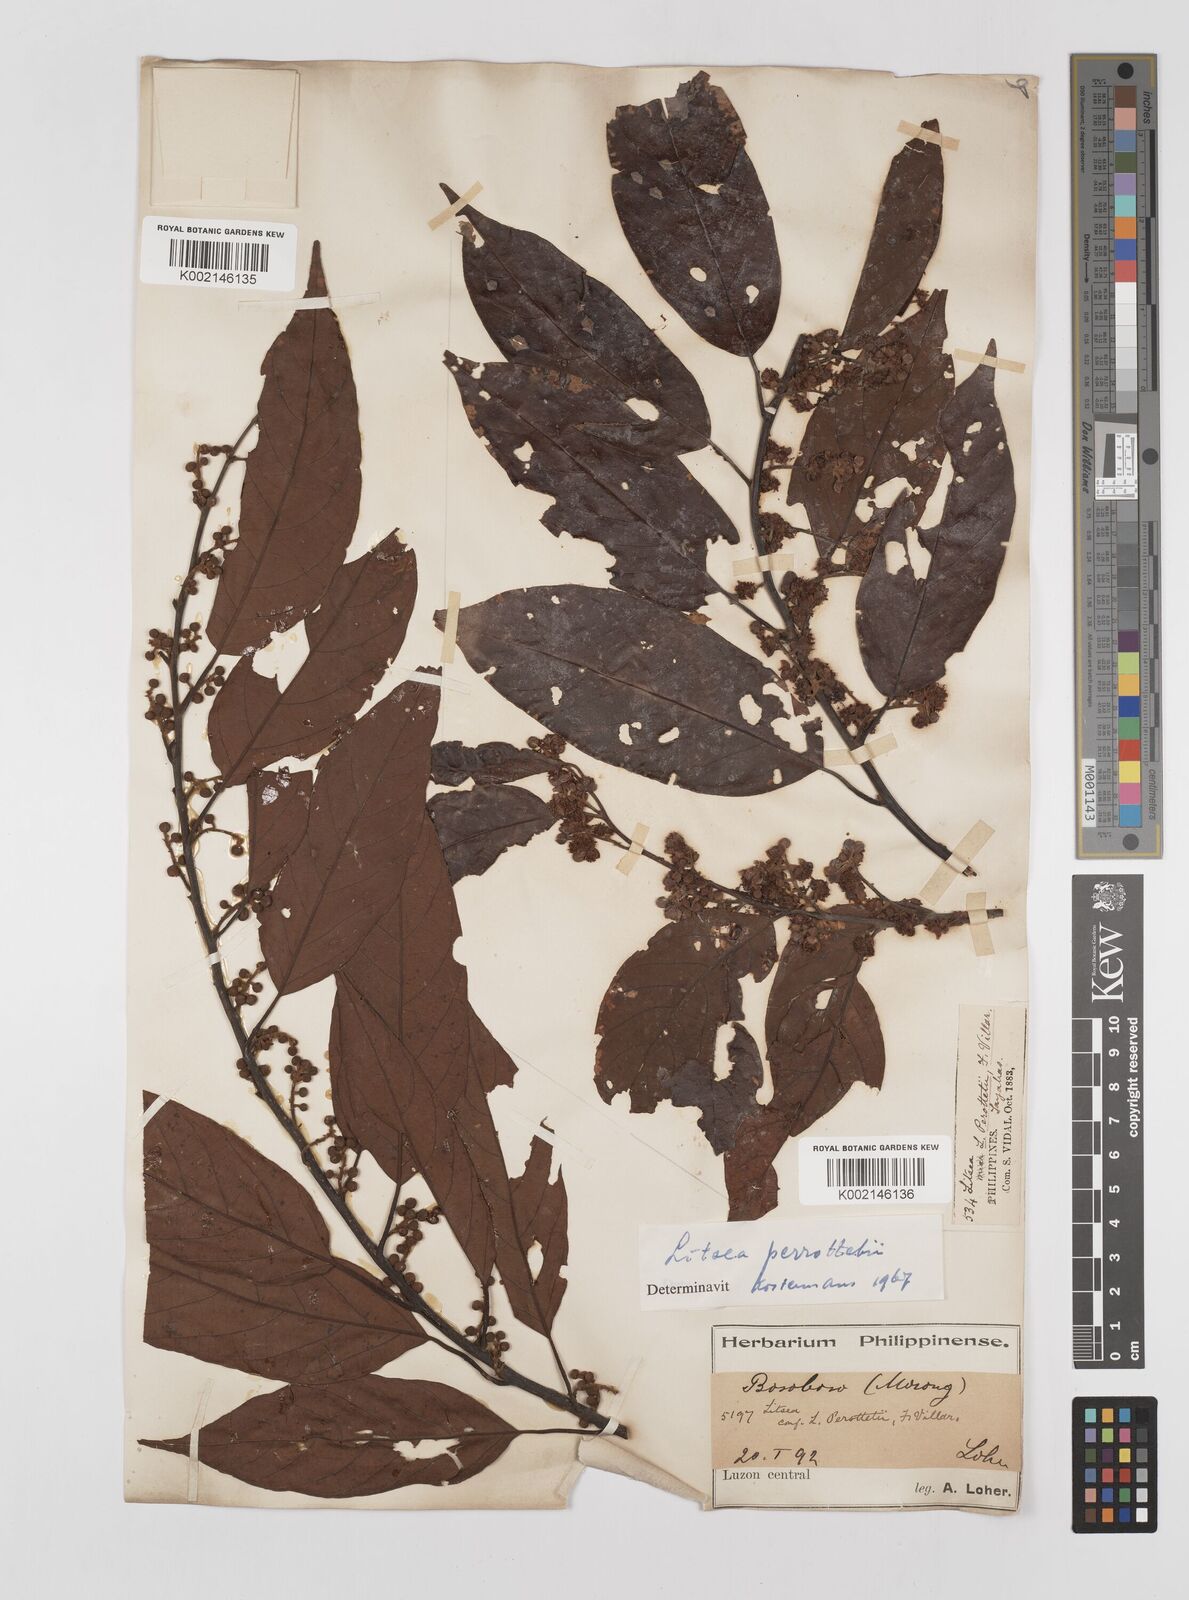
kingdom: Plantae
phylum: Tracheophyta
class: Magnoliopsida
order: Laurales
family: Lauraceae
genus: Litsea
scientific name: Litsea cordata
